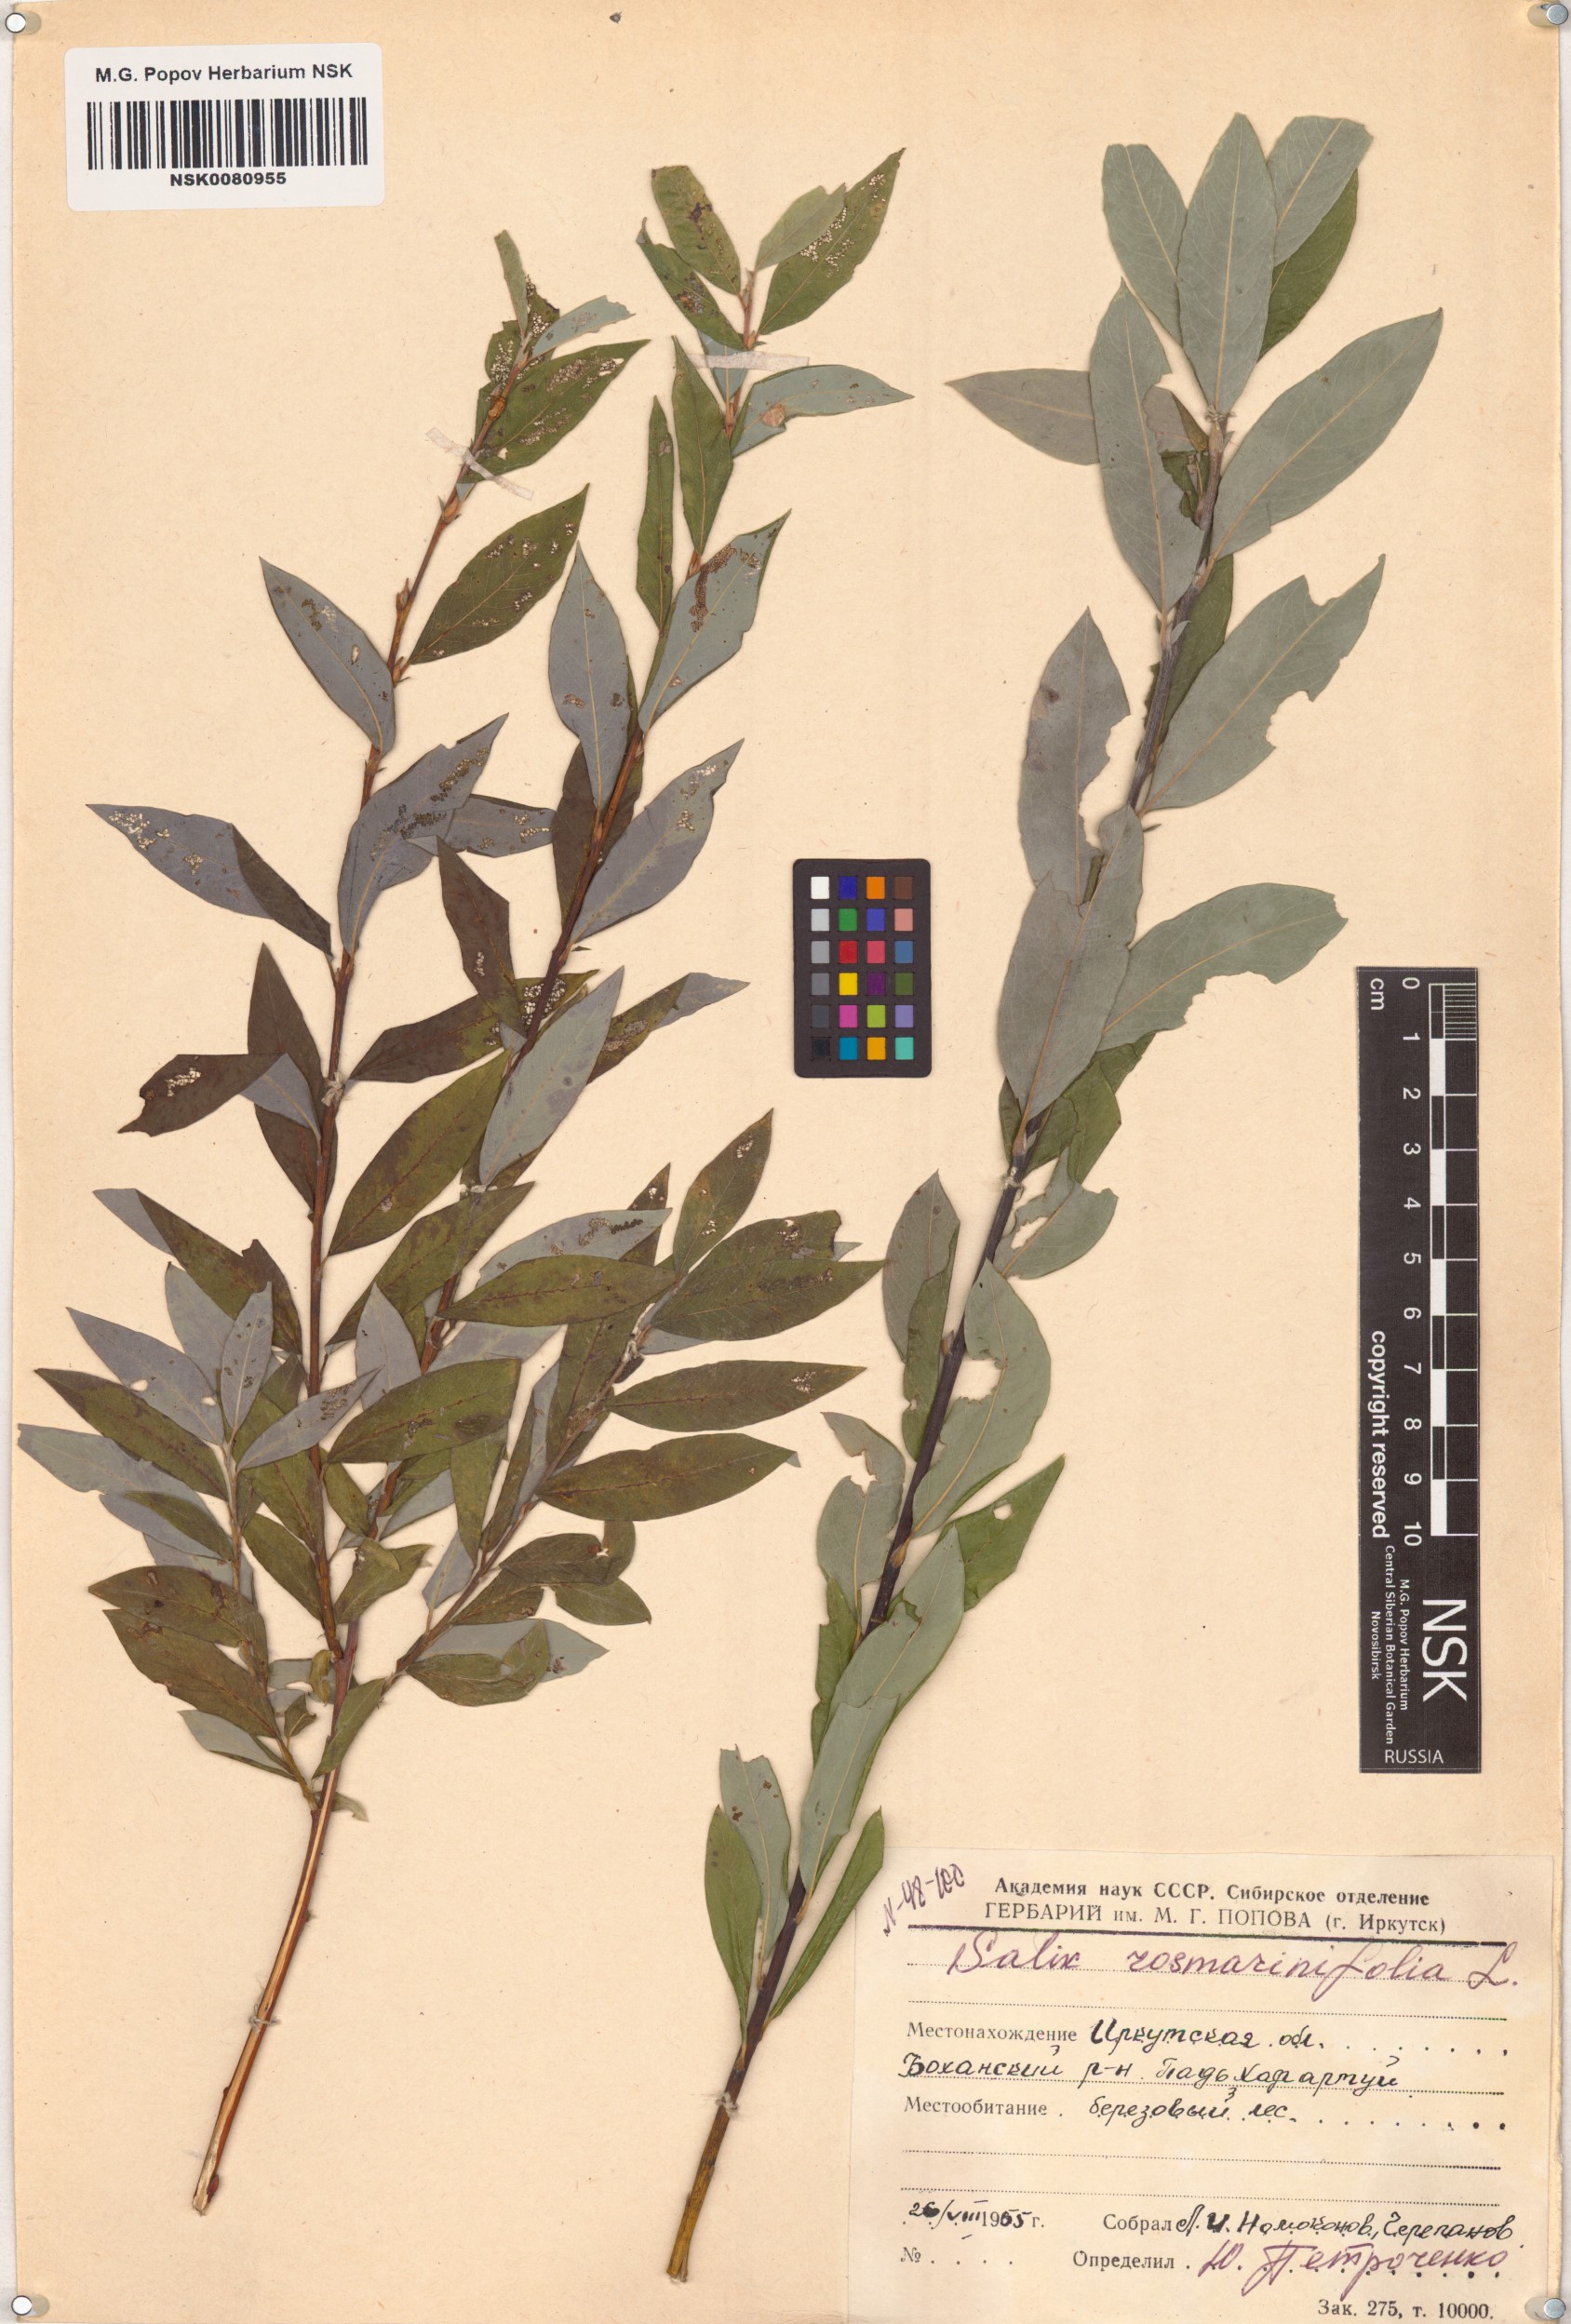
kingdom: Plantae
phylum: Tracheophyta
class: Magnoliopsida
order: Malpighiales
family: Salicaceae
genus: Salix
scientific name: Salix rosmarinifolia
